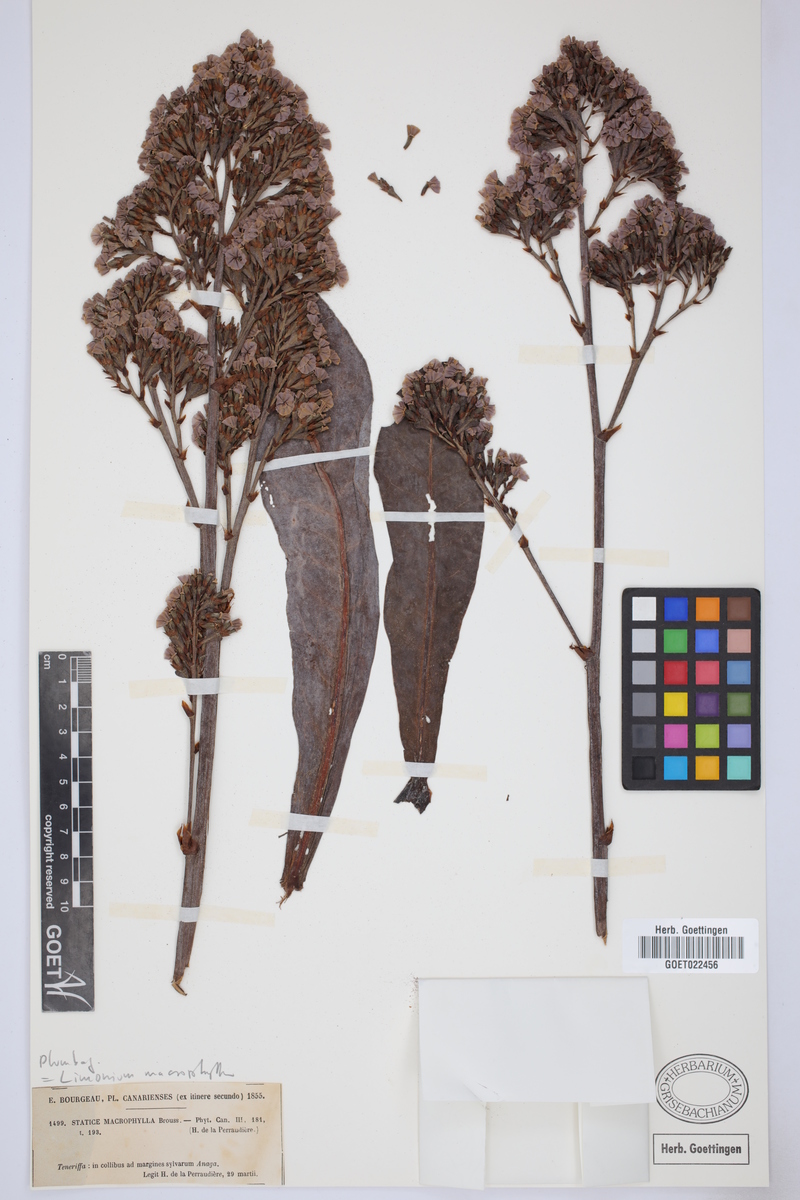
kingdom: Plantae
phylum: Tracheophyta
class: Magnoliopsida
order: Caryophyllales
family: Plumbaginaceae
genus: Limonium
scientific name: Limonium macrophyllum
